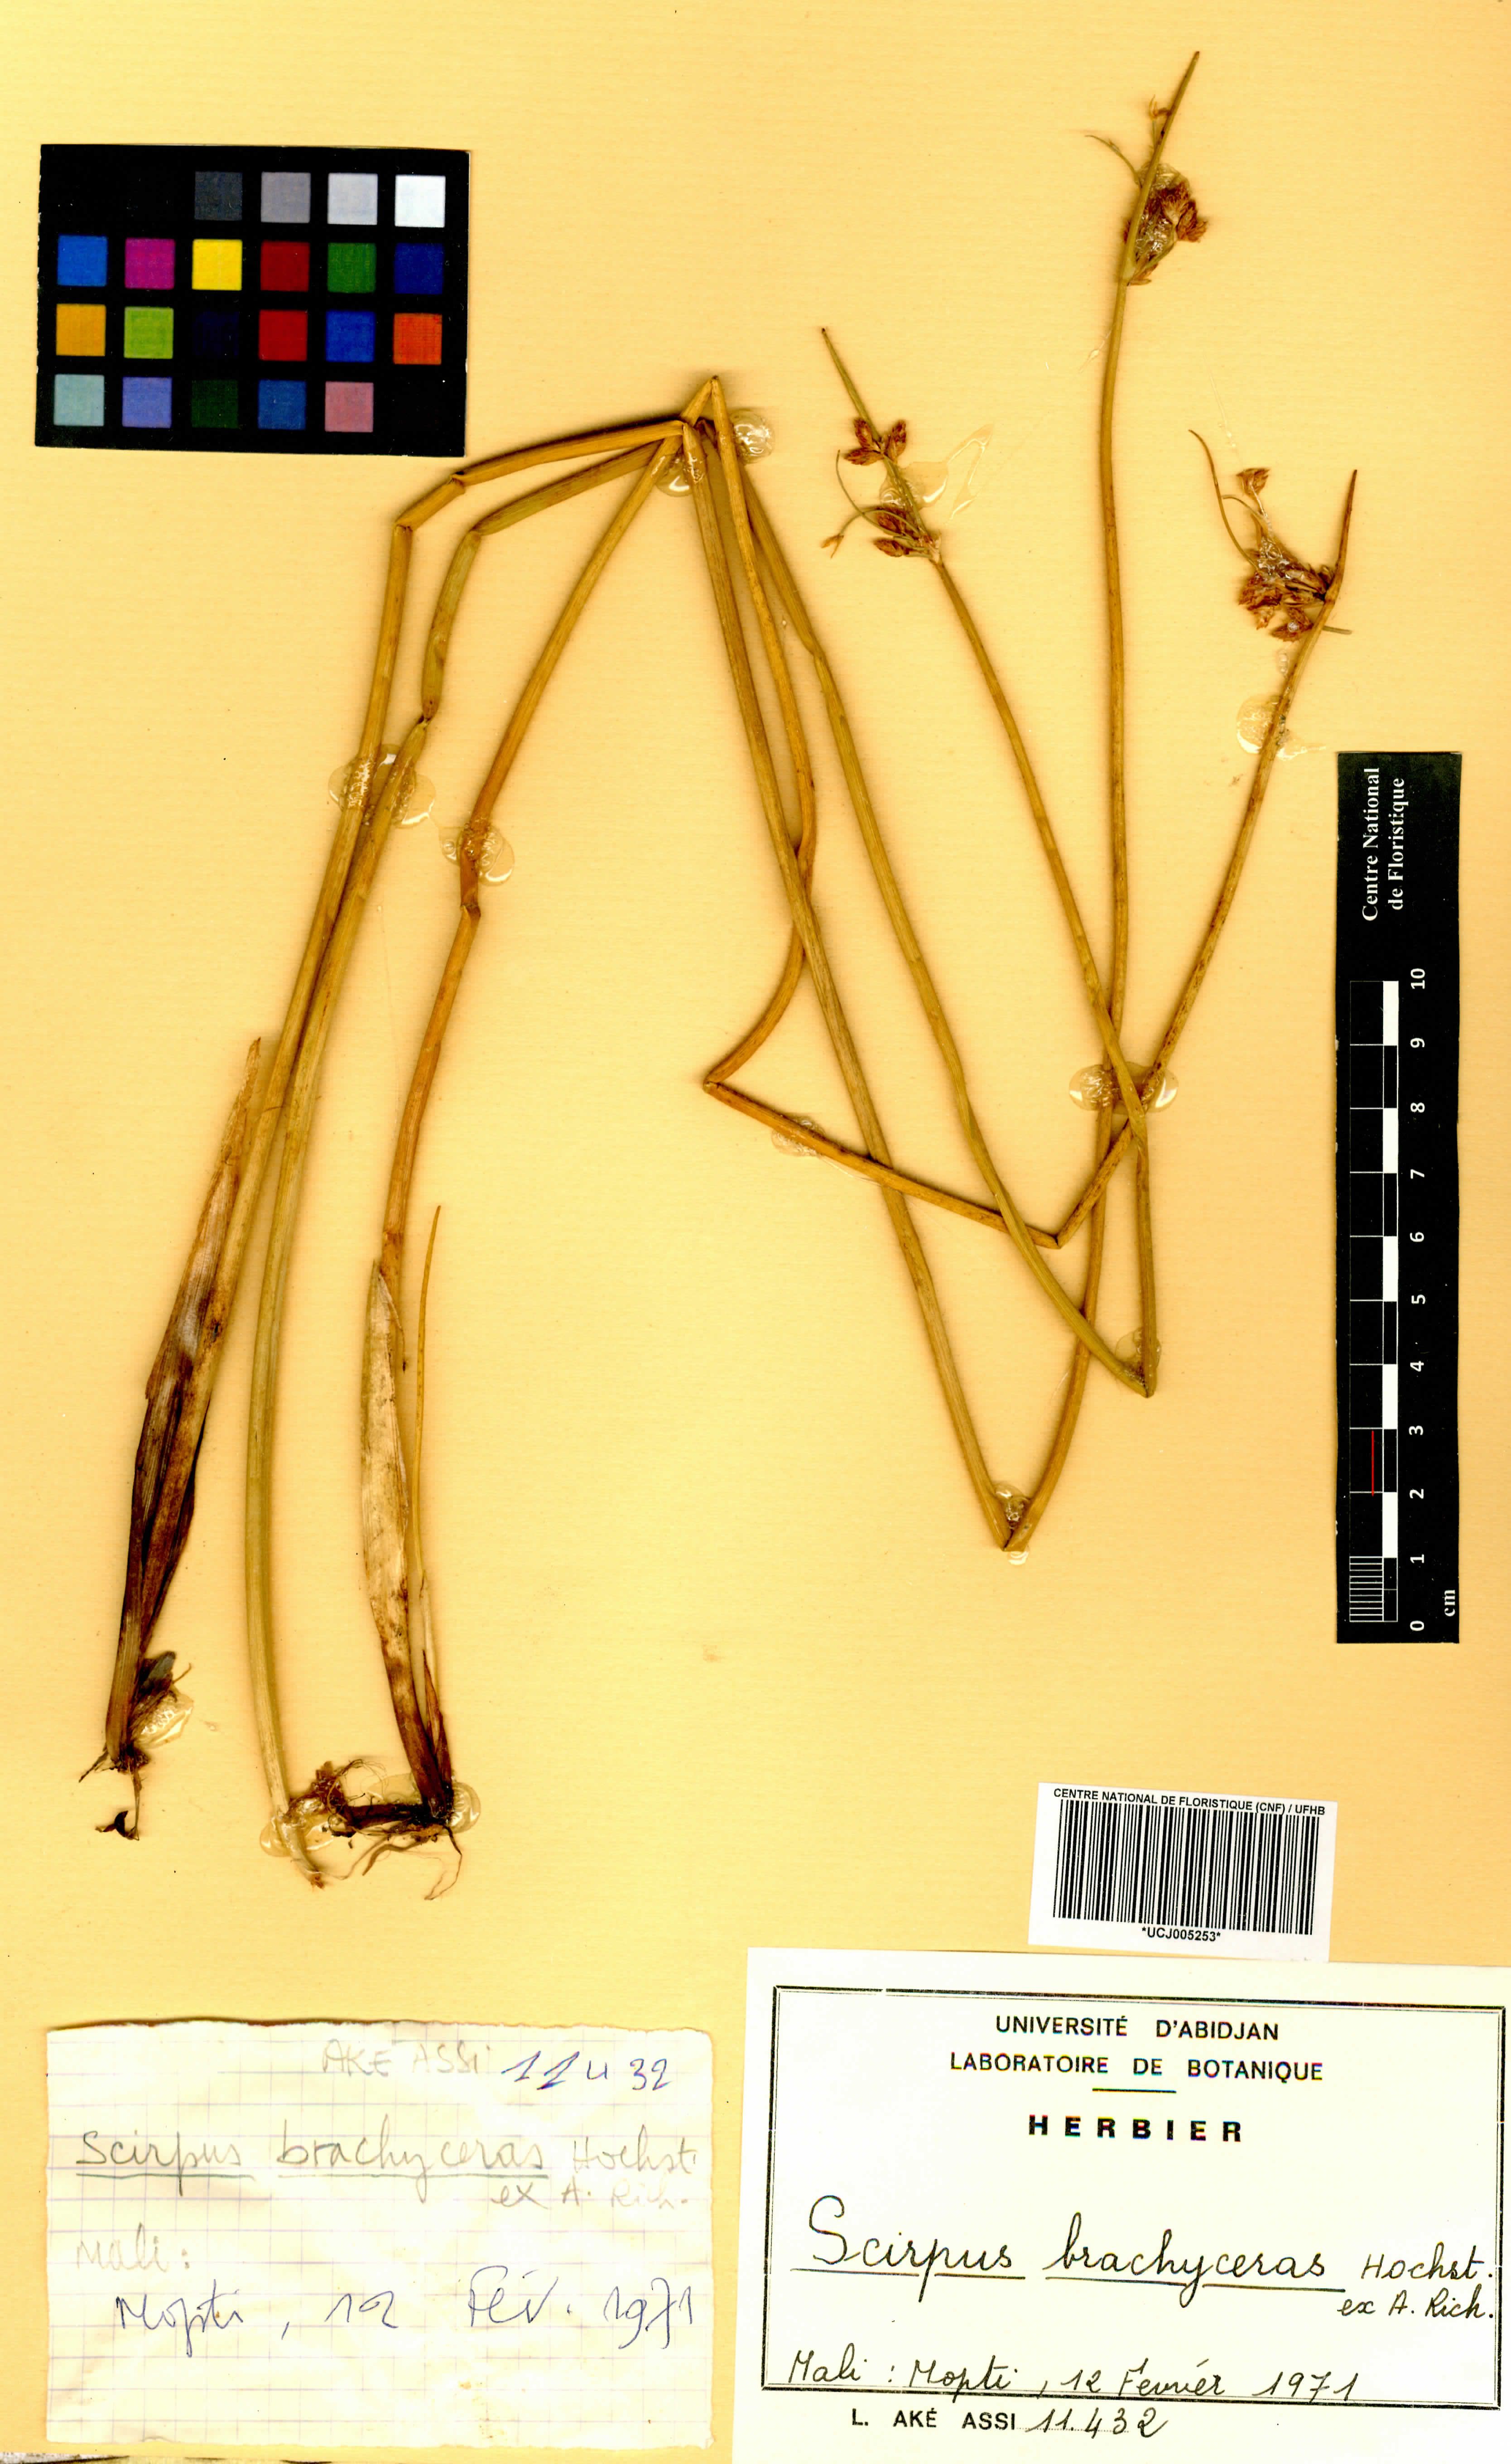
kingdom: Plantae
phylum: Tracheophyta
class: Liliopsida
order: Poales
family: Cyperaceae
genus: Schoenoplectiella
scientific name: Schoenoplectiella brachyceras
